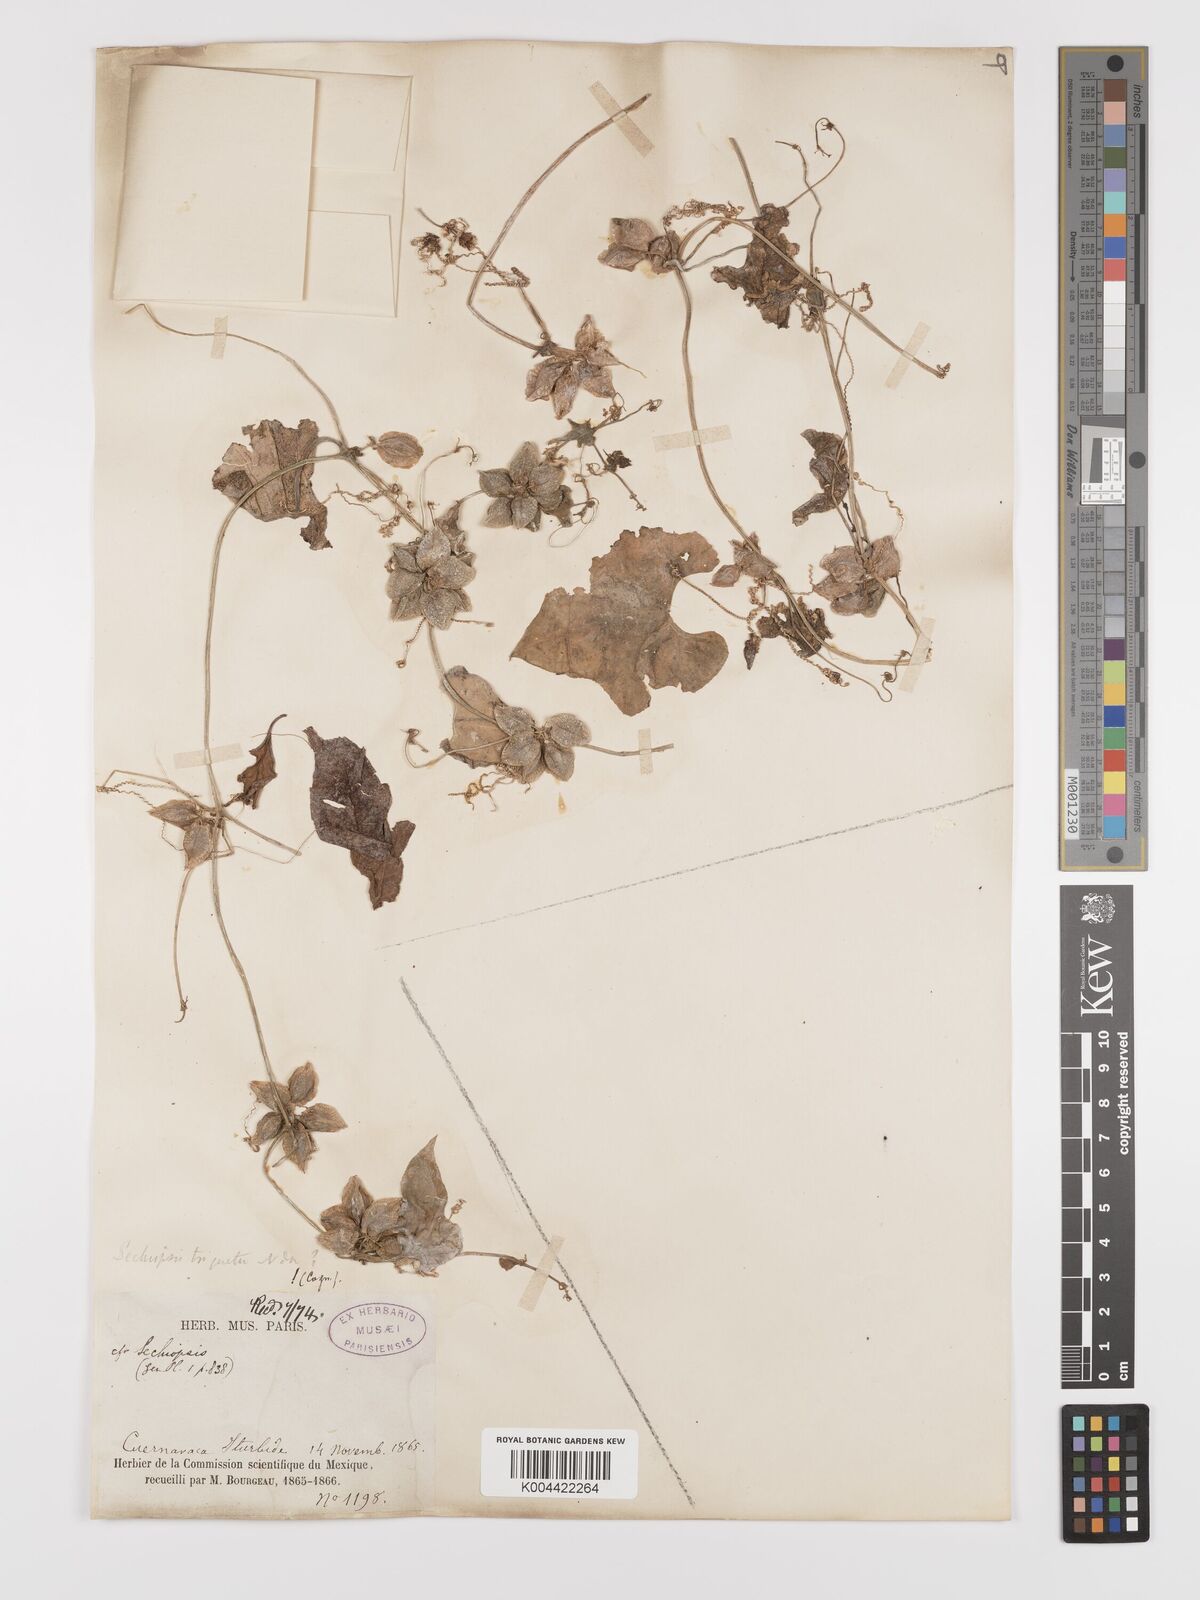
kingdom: Plantae
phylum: Tracheophyta
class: Magnoliopsida
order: Cucurbitales
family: Cucurbitaceae
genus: Sechiopsis
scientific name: Sechiopsis triqueter
